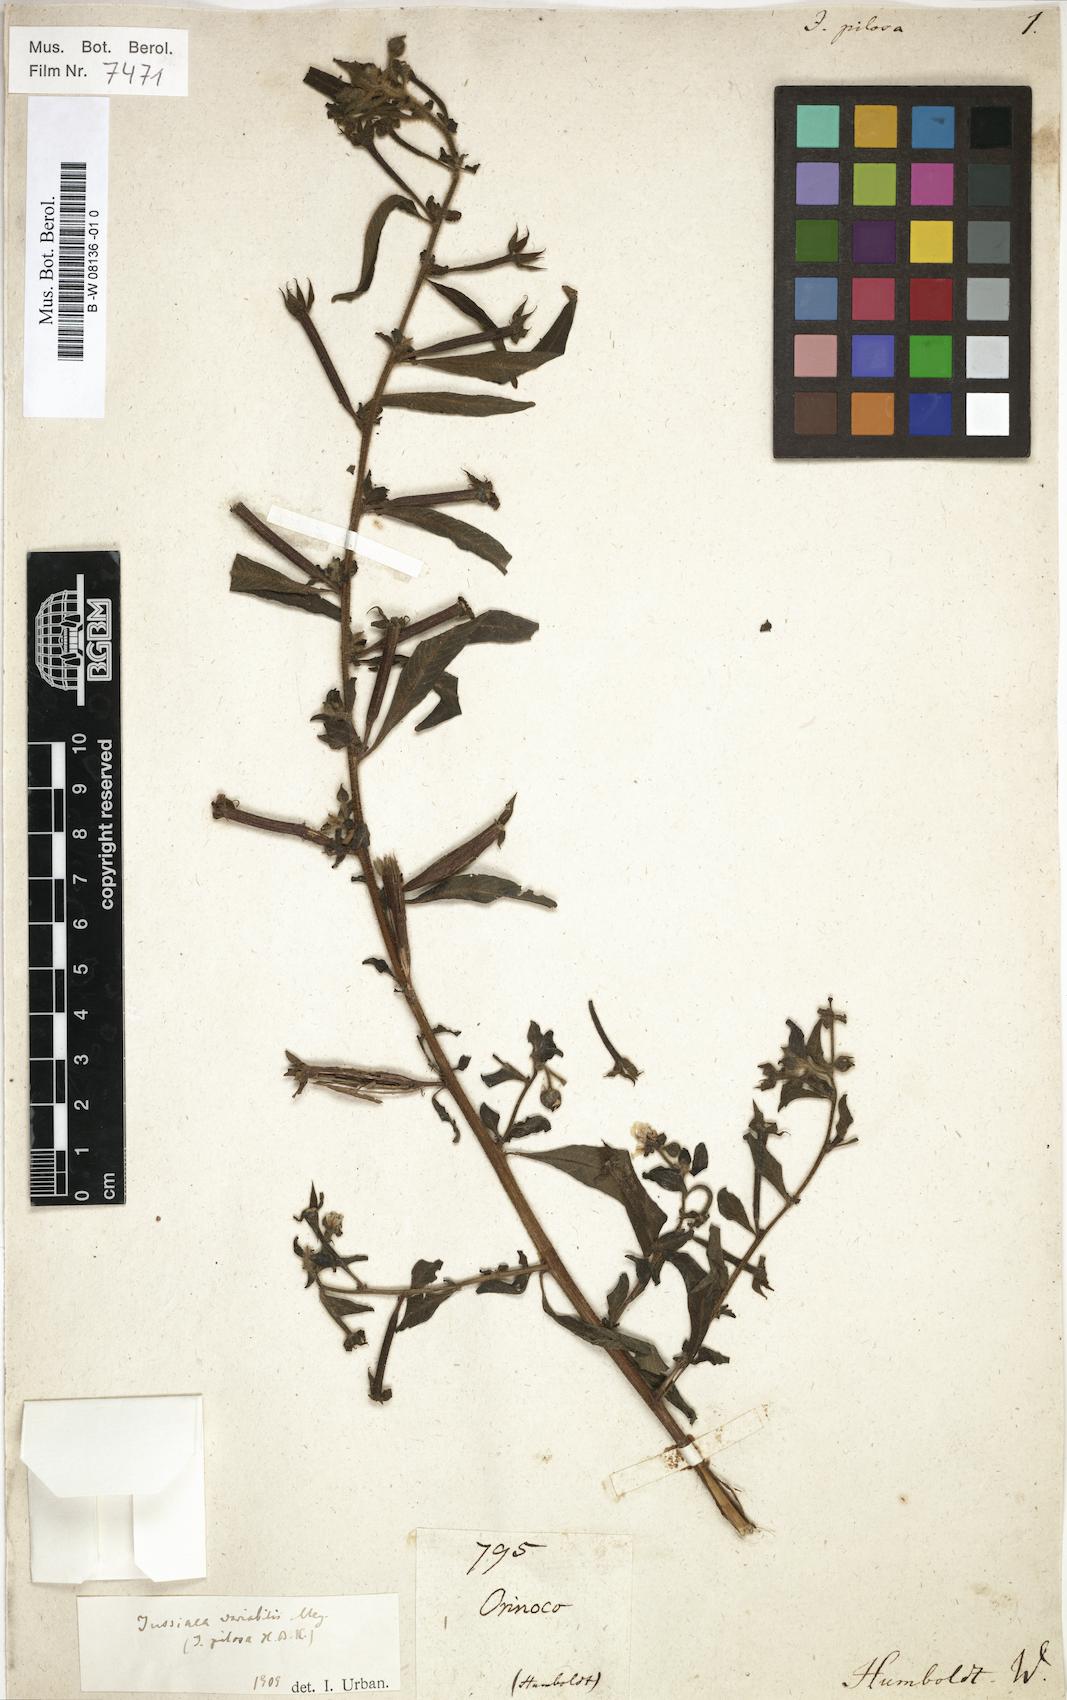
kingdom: Plantae
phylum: Tracheophyta
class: Magnoliopsida
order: Myrtales
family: Onagraceae
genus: Ludwigia
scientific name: Ludwigia leptocarpa
